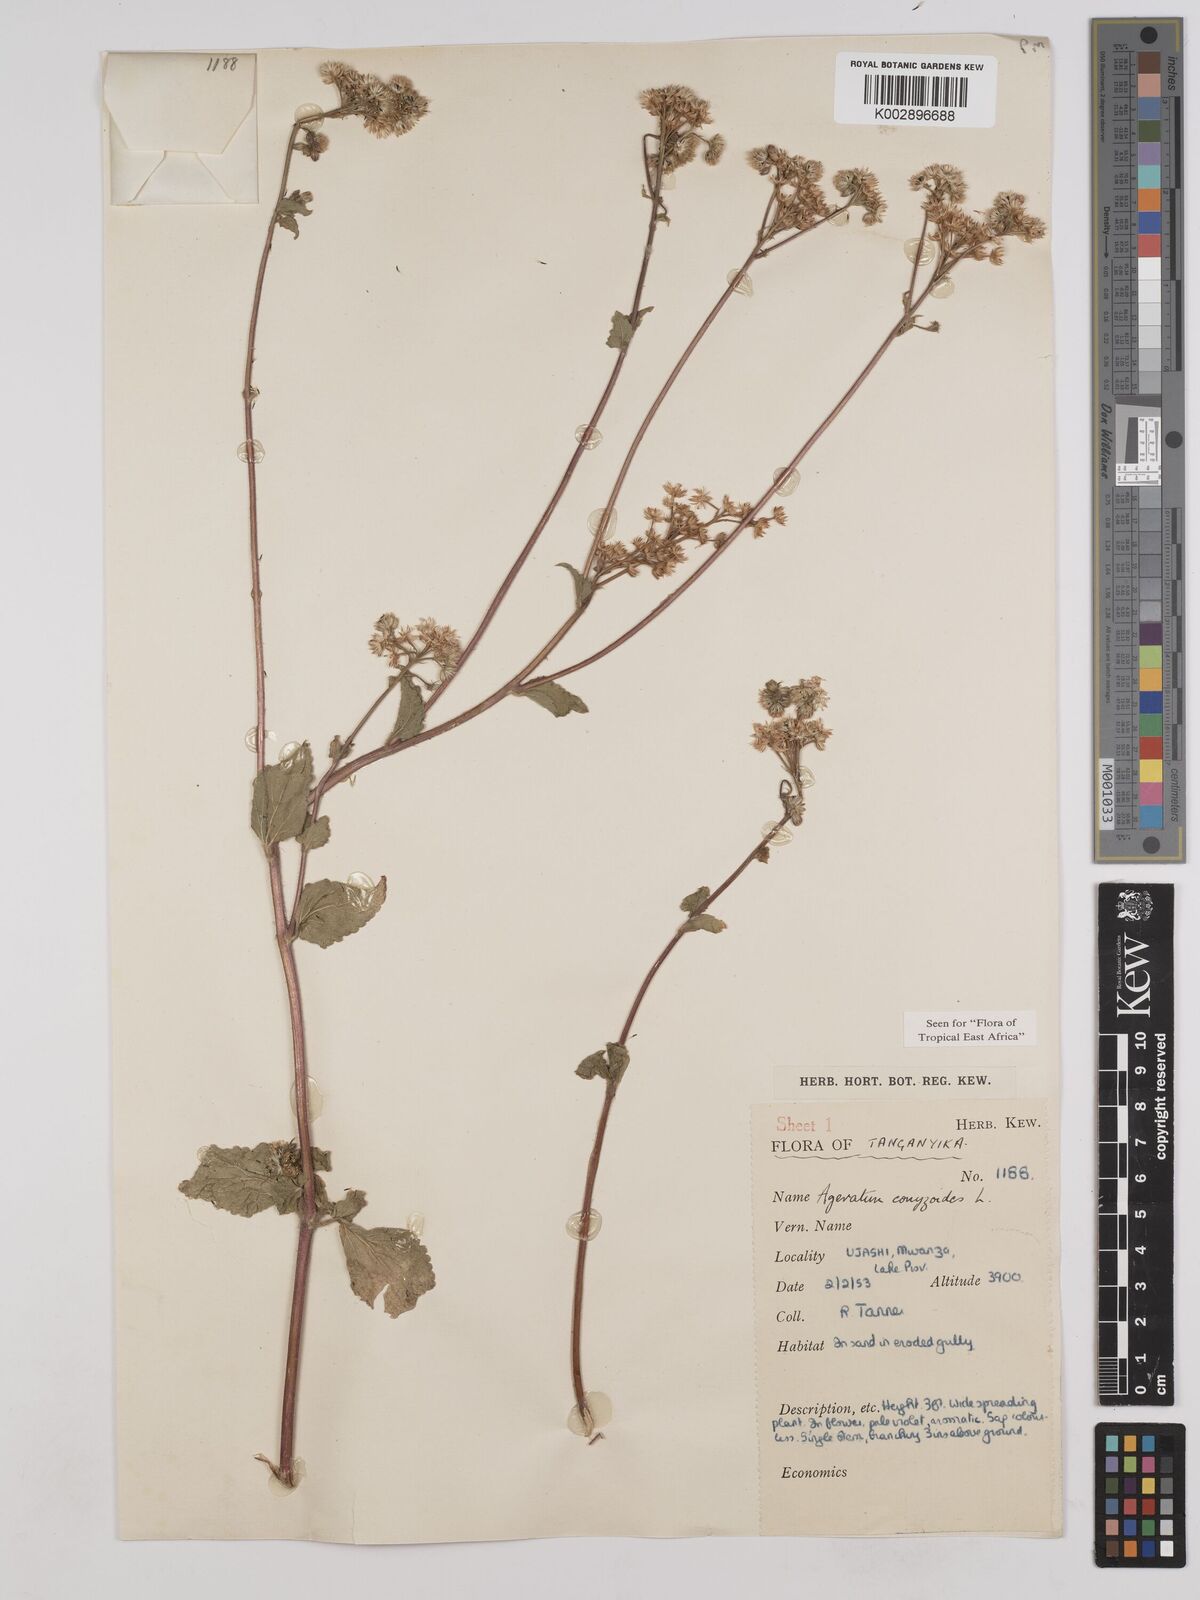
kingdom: Plantae
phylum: Tracheophyta
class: Magnoliopsida
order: Asterales
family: Asteraceae
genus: Ageratum
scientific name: Ageratum conyzoides
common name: Tropical whiteweed
